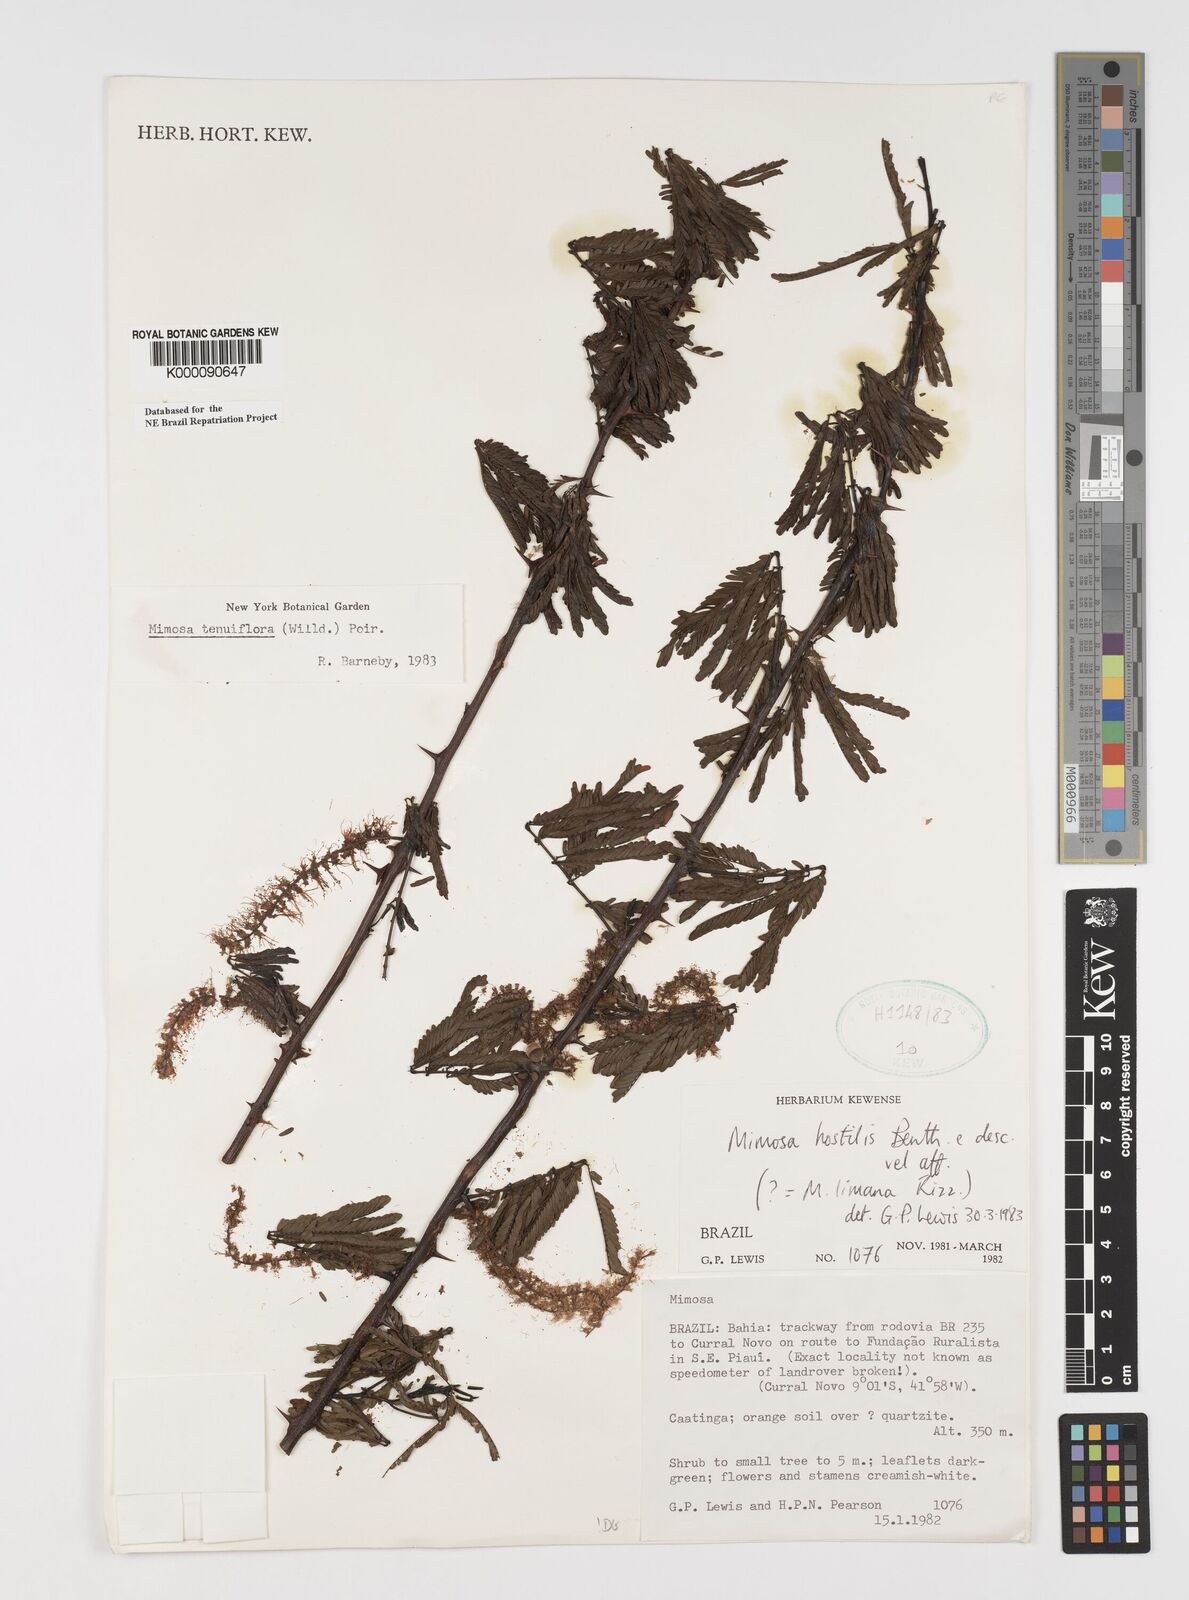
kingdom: Plantae
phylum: Tracheophyta
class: Magnoliopsida
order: Fabales
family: Fabaceae
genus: Mimosa
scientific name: Mimosa tenuiflora
